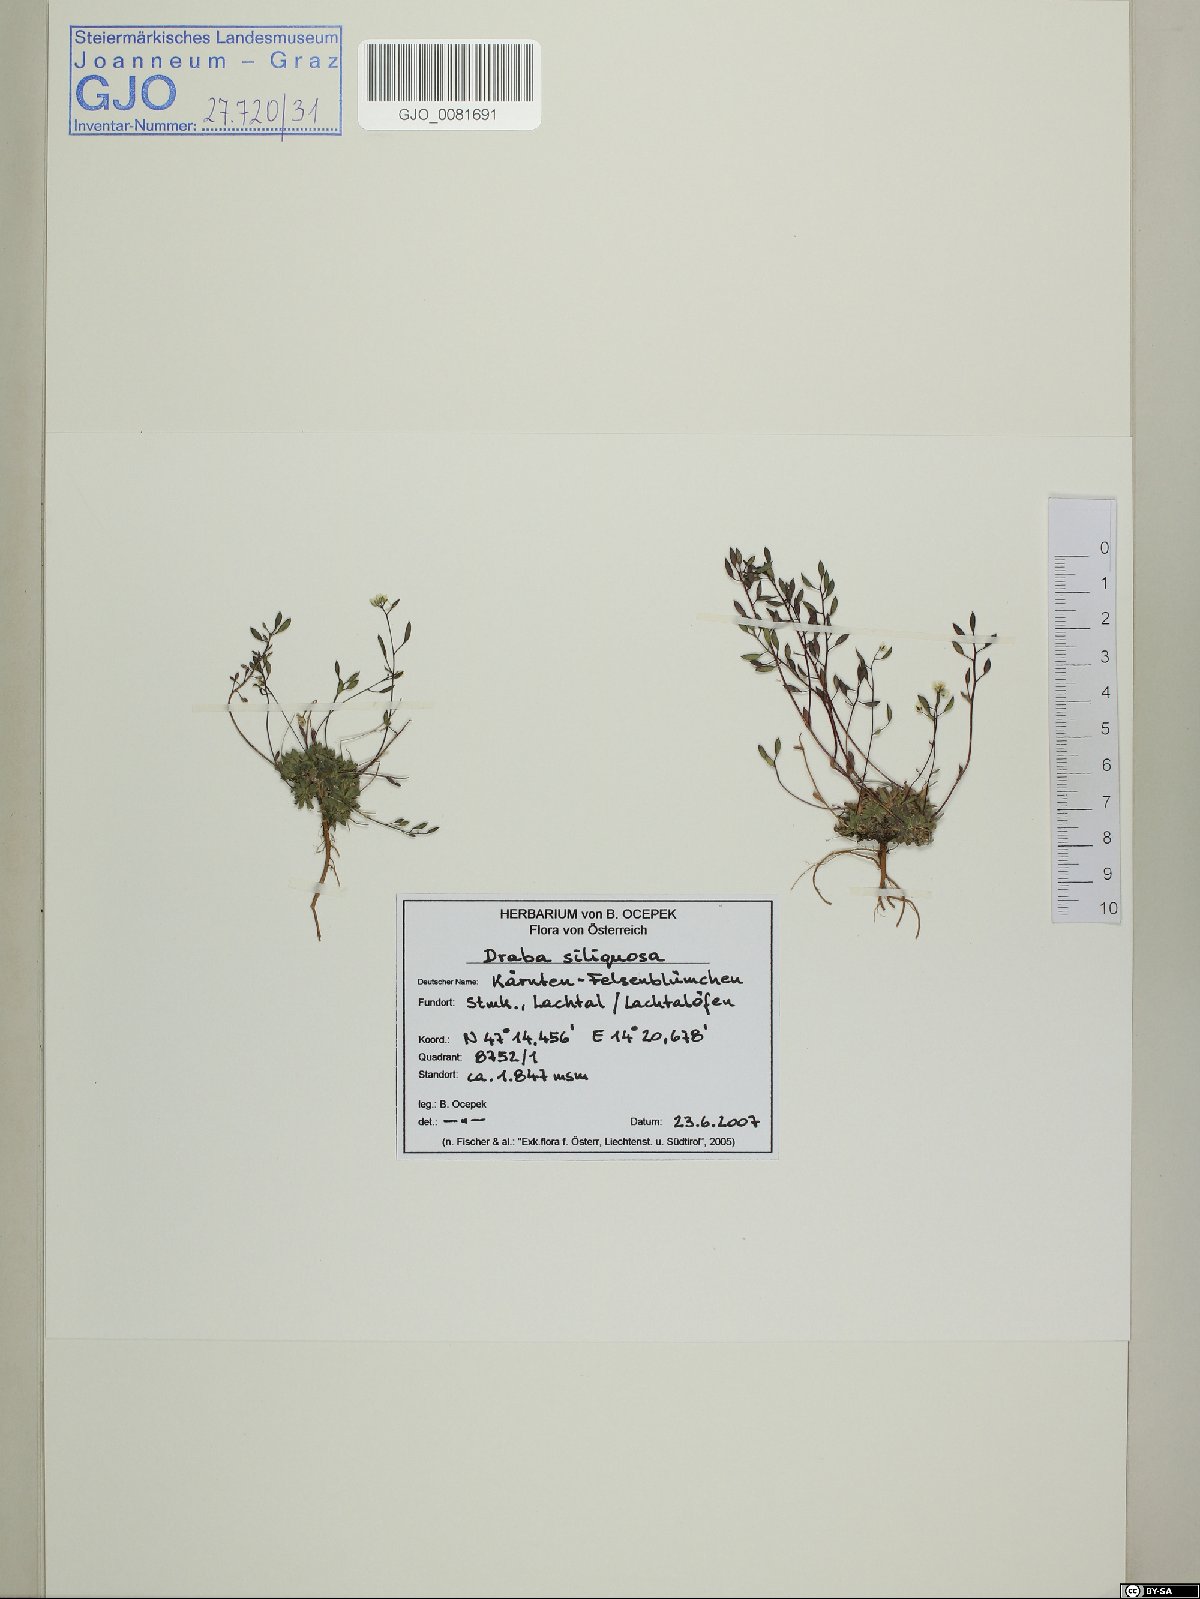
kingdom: Plantae
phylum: Tracheophyta
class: Magnoliopsida
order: Brassicales
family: Brassicaceae
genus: Draba
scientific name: Draba siliquosa
